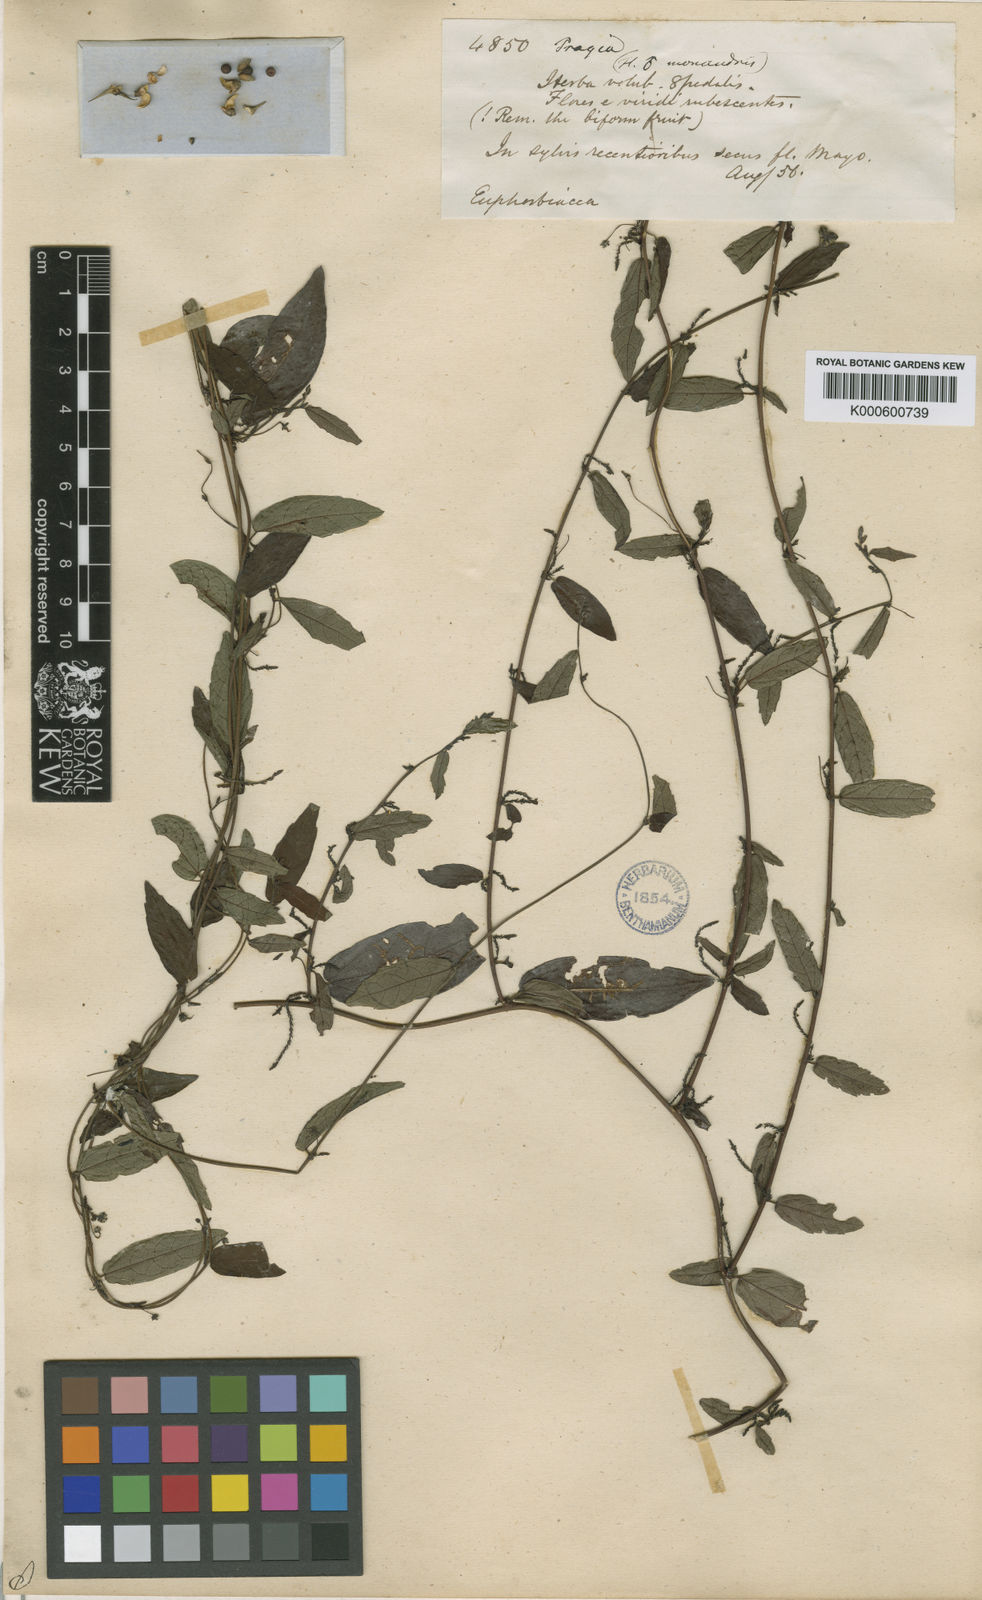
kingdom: Plantae
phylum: Tracheophyta
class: Magnoliopsida
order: Malpighiales
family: Euphorbiaceae
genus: Tragia
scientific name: Tragia volubilis
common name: Twining cow-itch
